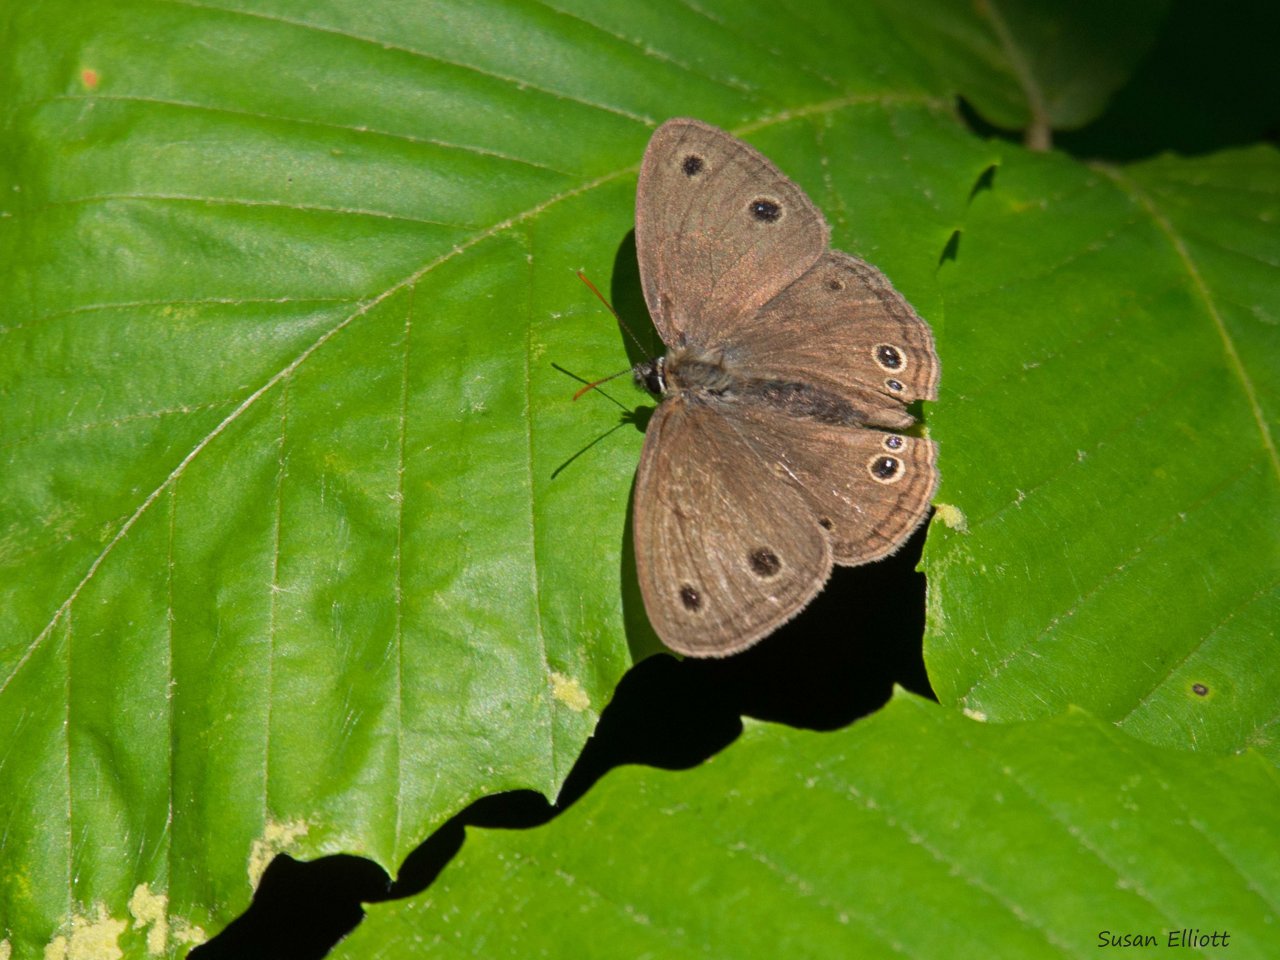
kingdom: Animalia
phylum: Arthropoda
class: Insecta
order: Lepidoptera
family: Nymphalidae
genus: Euptychia
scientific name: Euptychia cymela
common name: Little Wood Satyr
